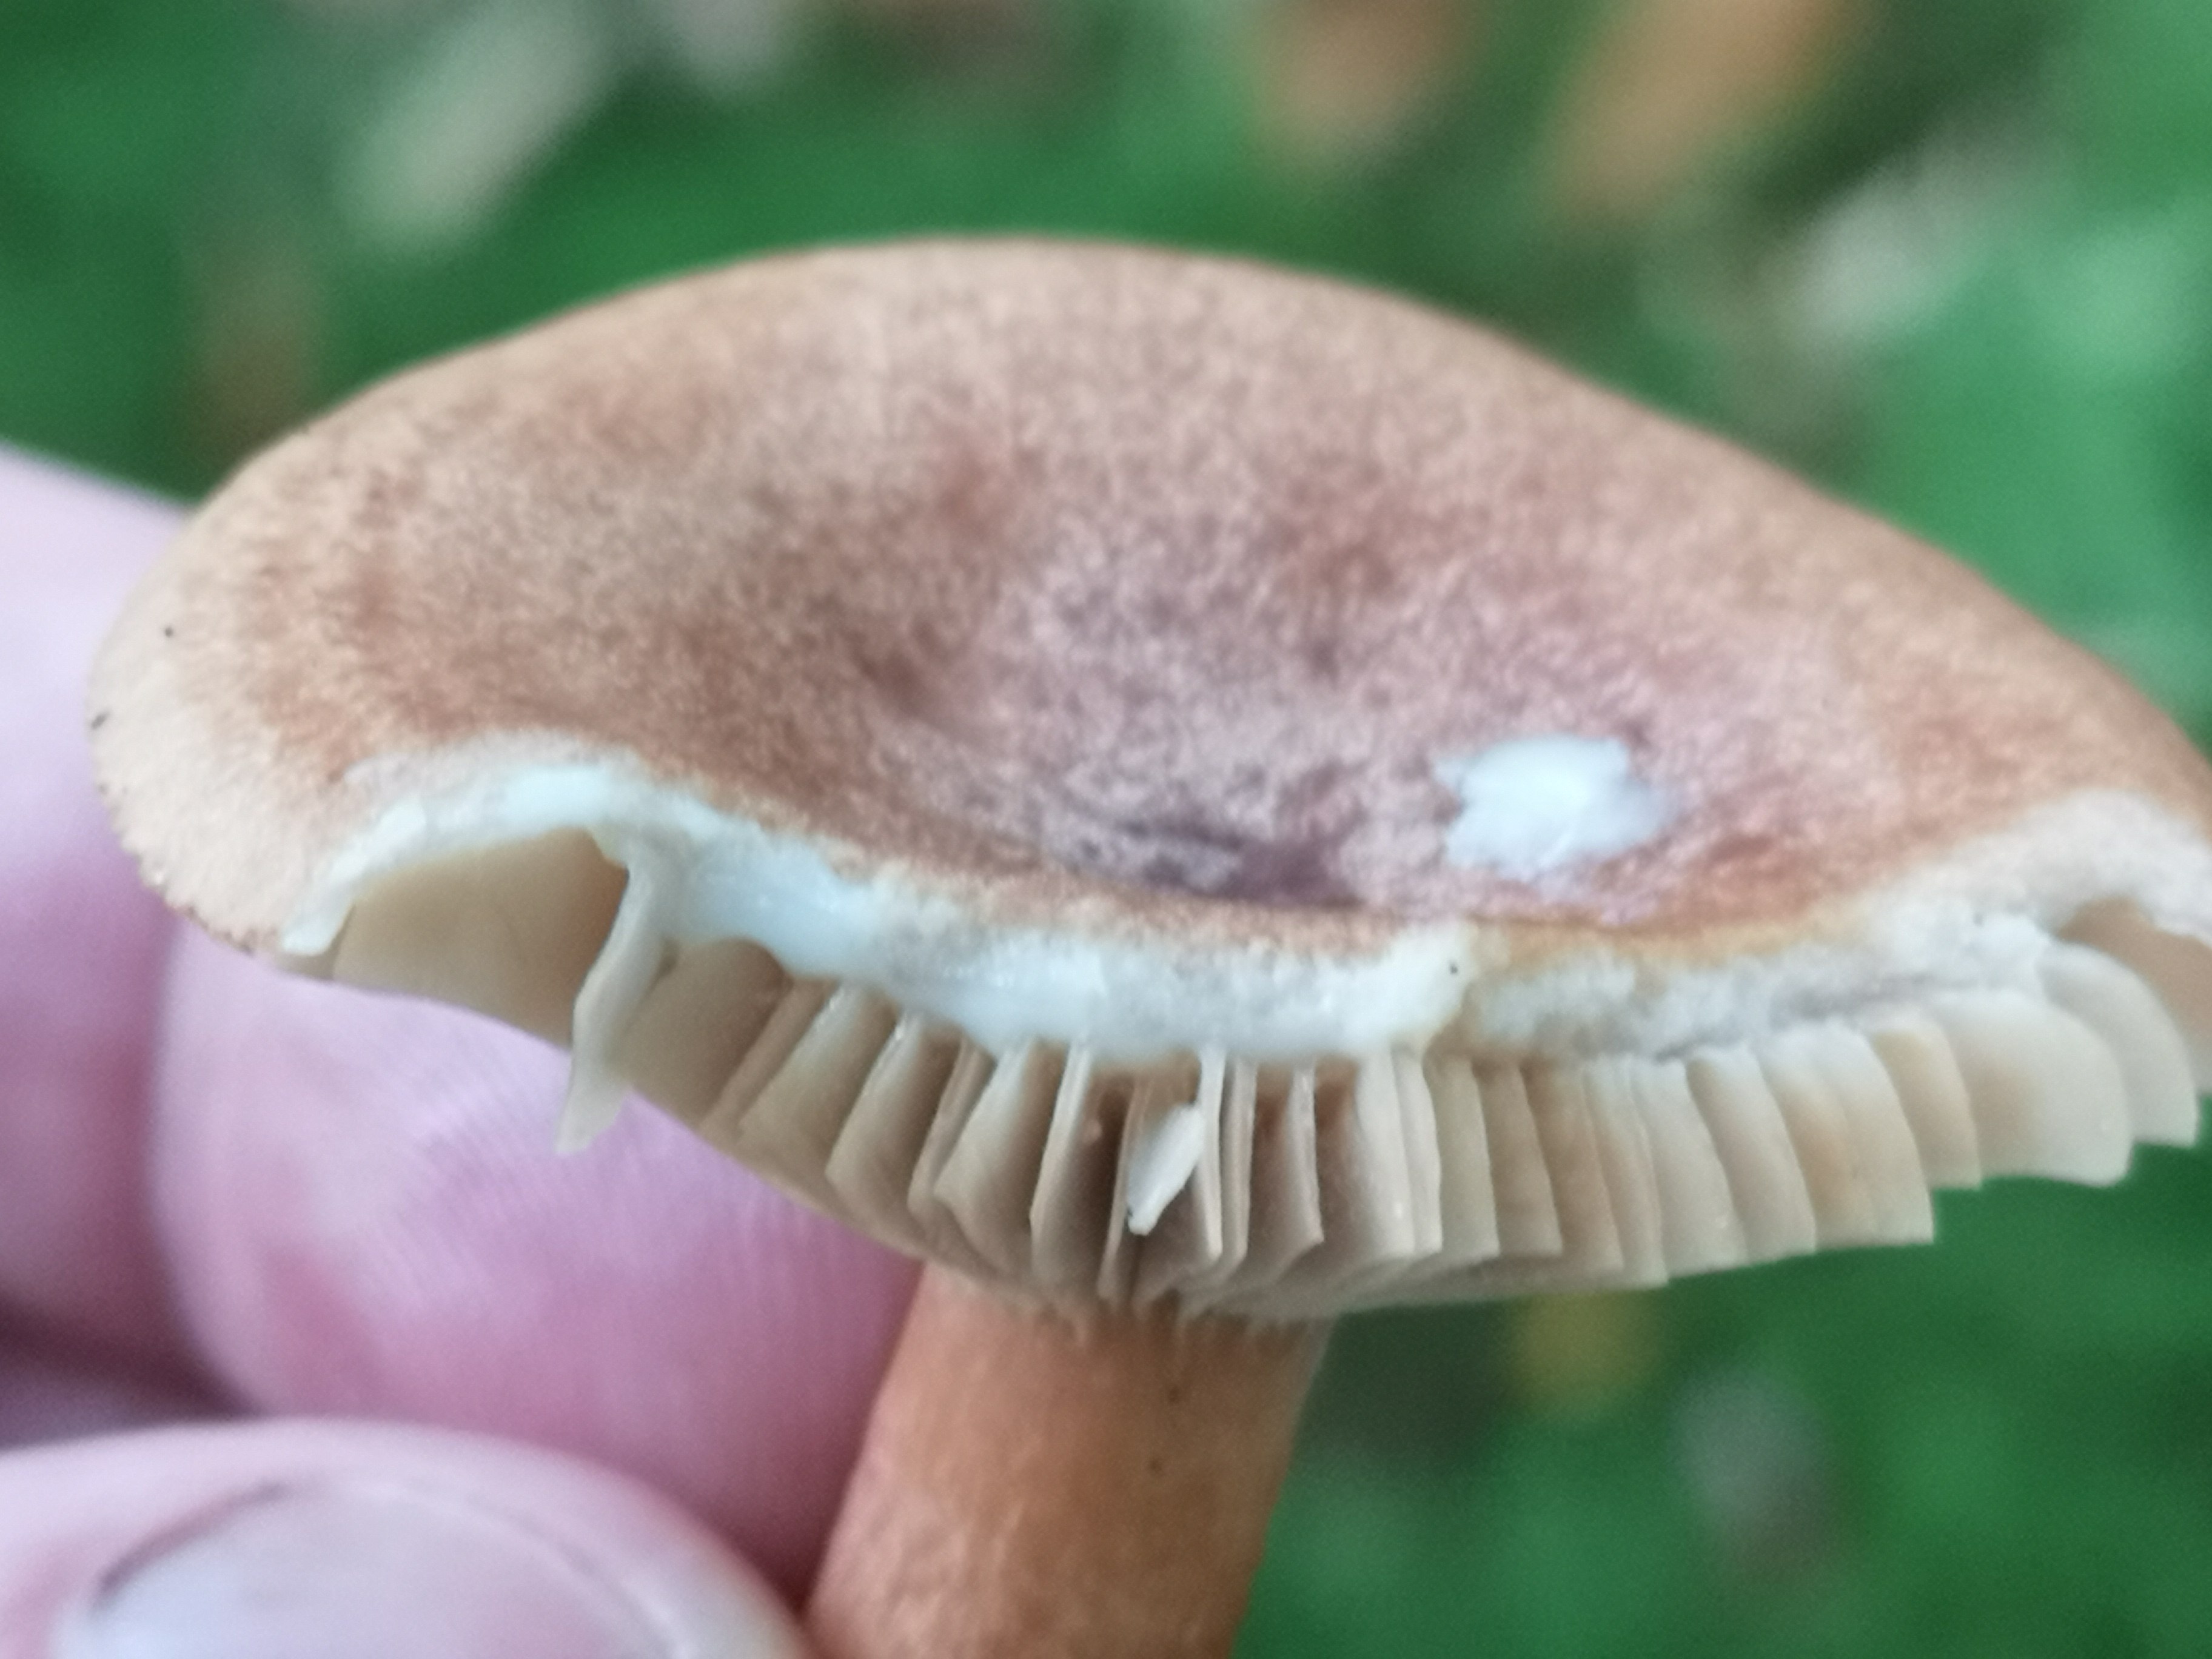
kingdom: Fungi
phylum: Basidiomycota
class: Agaricomycetes
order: Russulales
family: Russulaceae
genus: Lactarius
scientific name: Lactarius quietus
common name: ege-mælkehat
